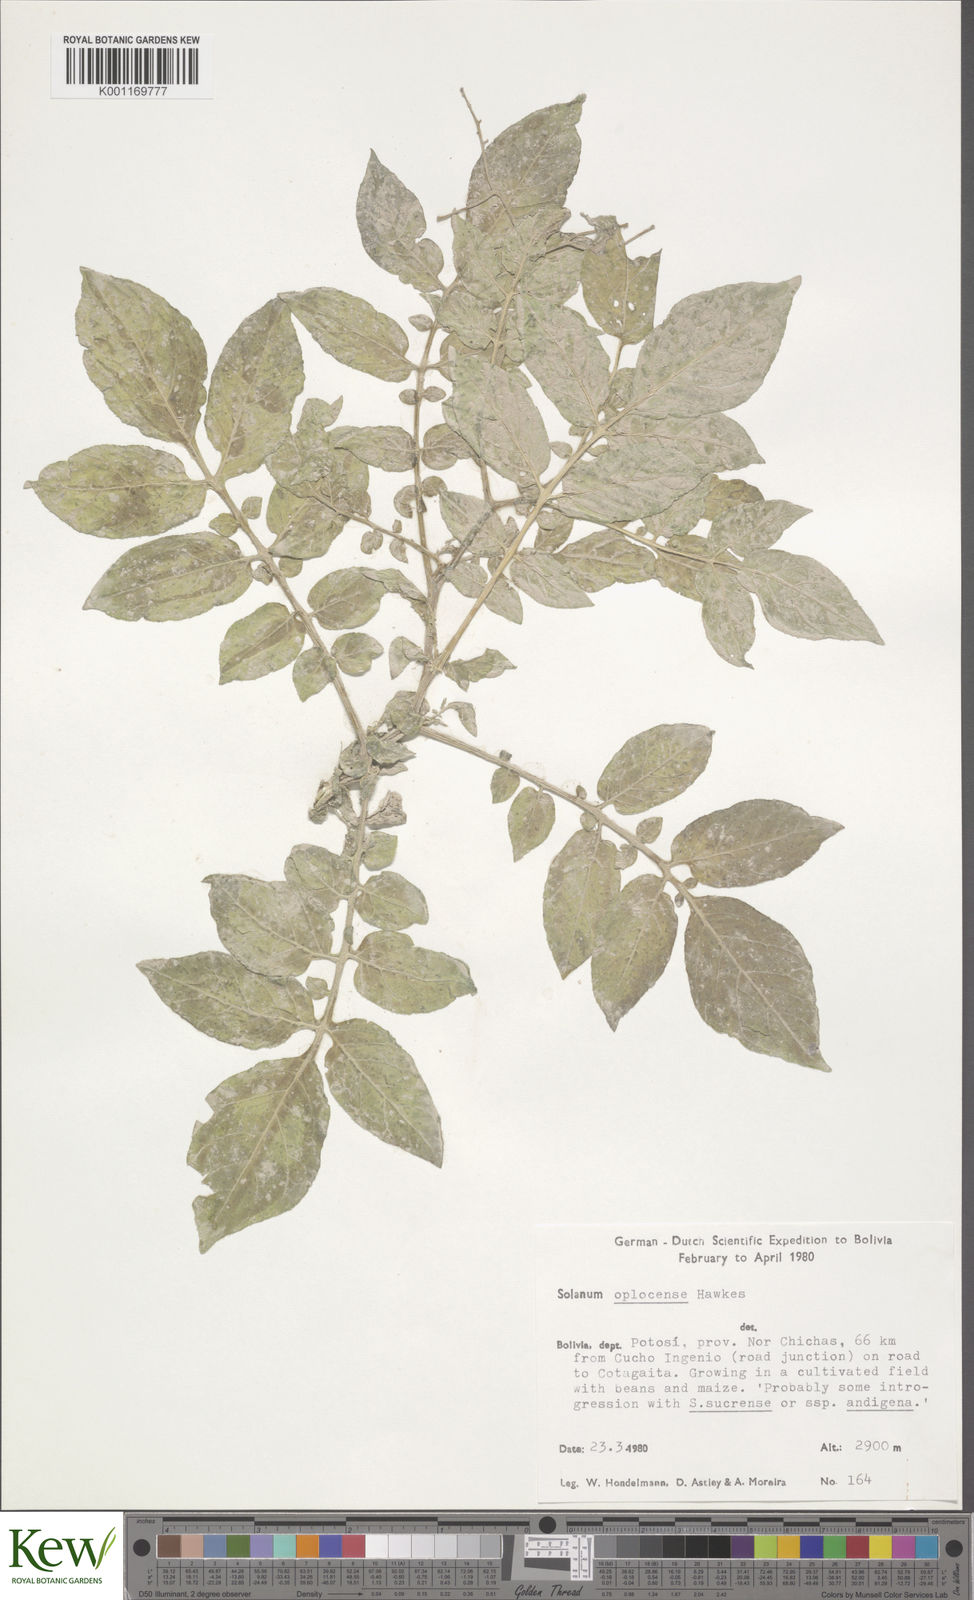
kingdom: Plantae
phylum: Tracheophyta
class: Magnoliopsida
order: Solanales
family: Solanaceae
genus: Solanum
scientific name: Solanum brevicaule
